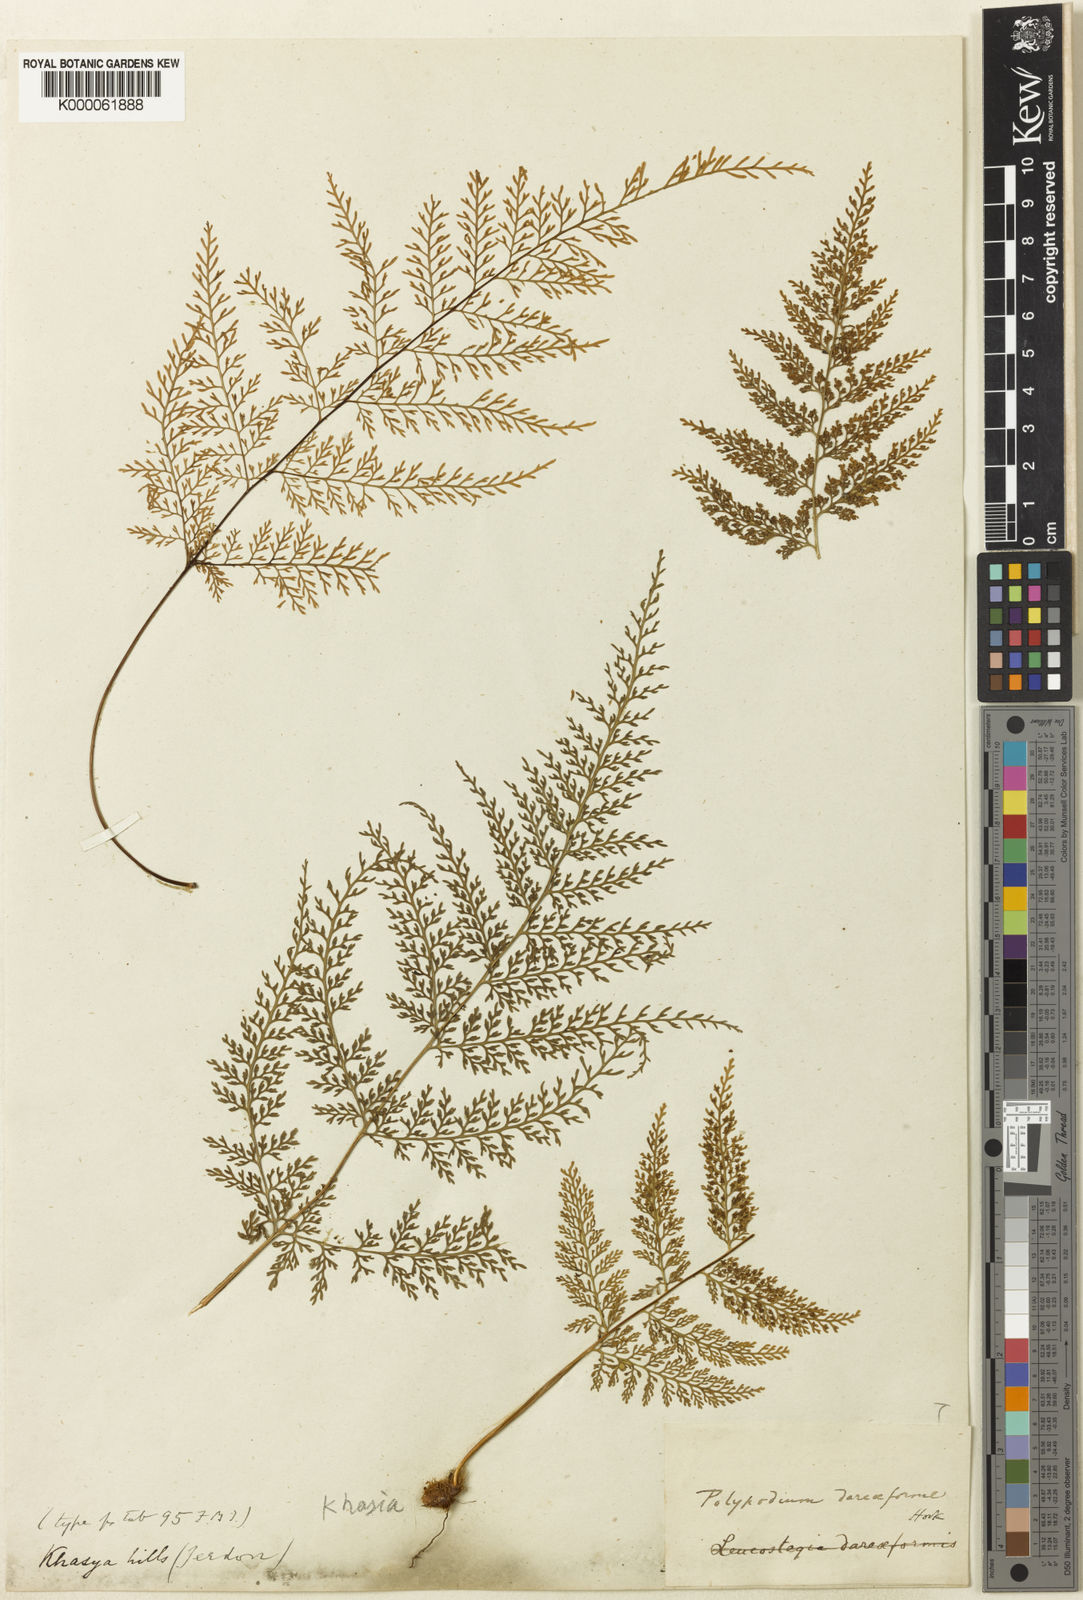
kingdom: Plantae
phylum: Tracheophyta
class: Polypodiopsida
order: Polypodiales
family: Polypodiaceae
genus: Selliguea
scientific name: Selliguea dareiformis
